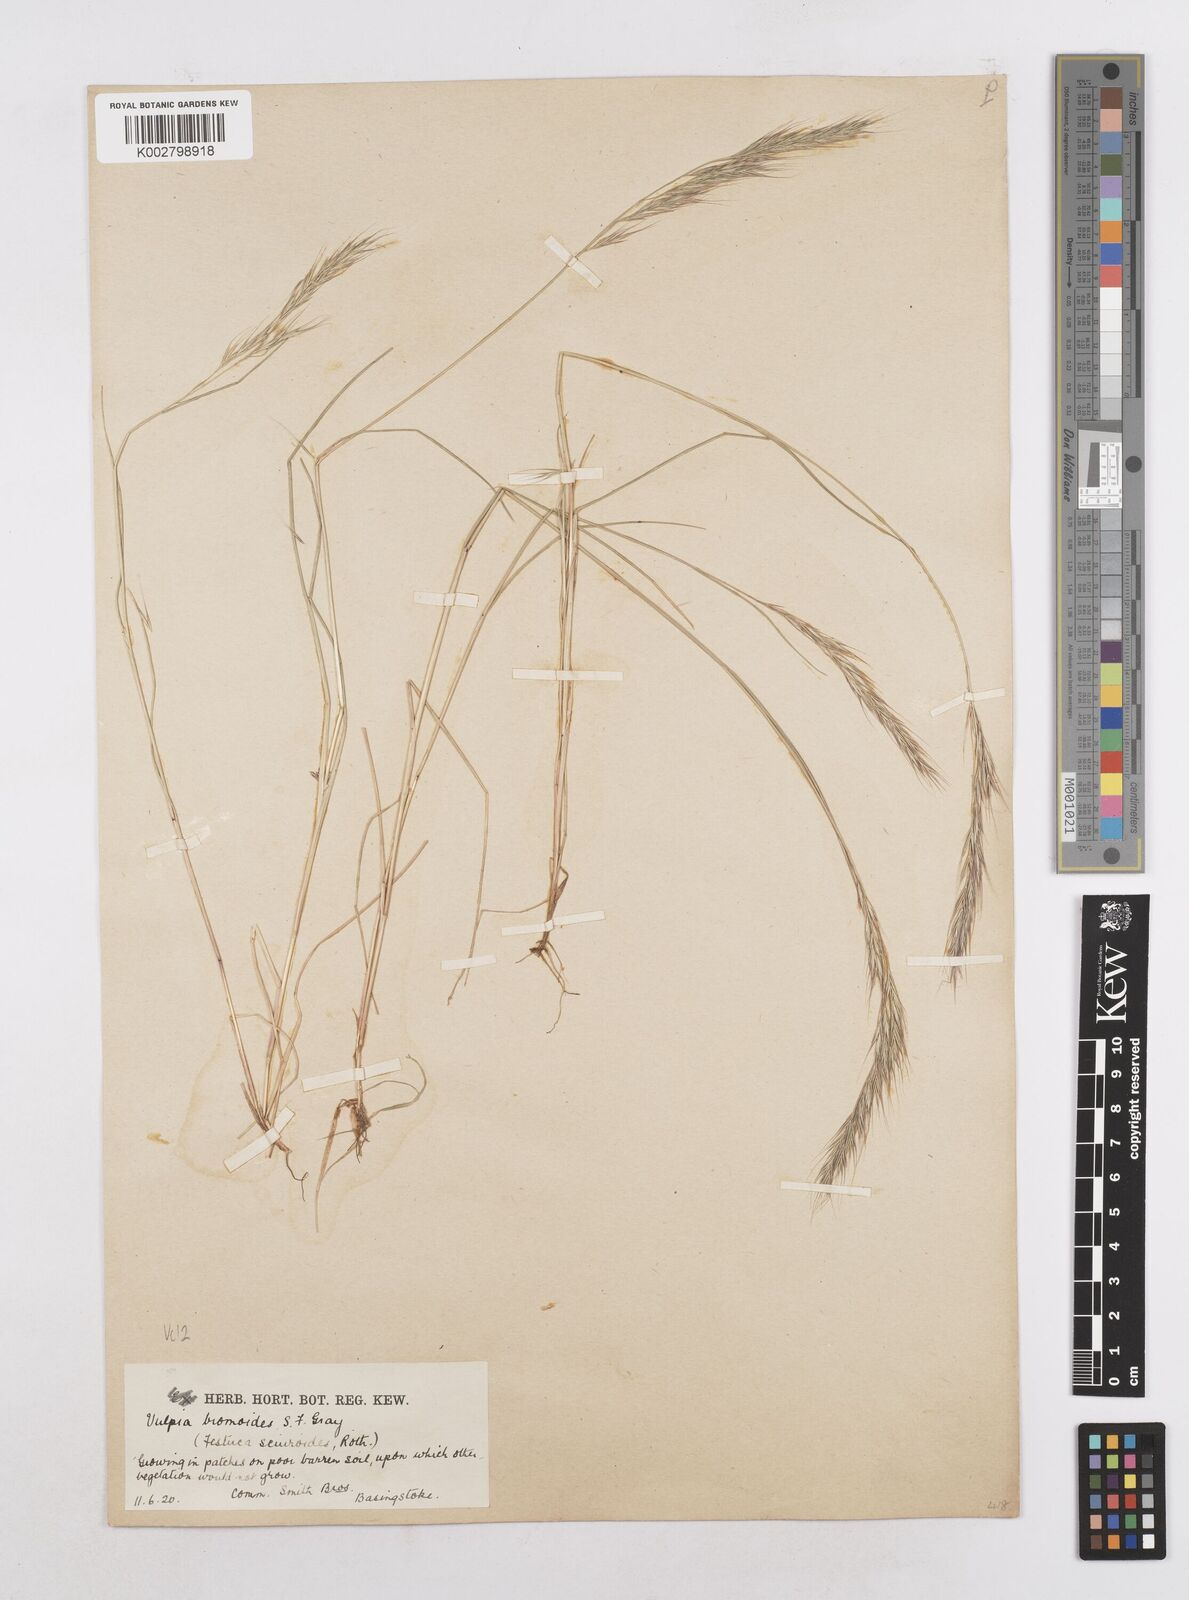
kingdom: Plantae
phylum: Tracheophyta
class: Liliopsida
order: Poales
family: Poaceae
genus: Festuca
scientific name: Festuca bromoides
